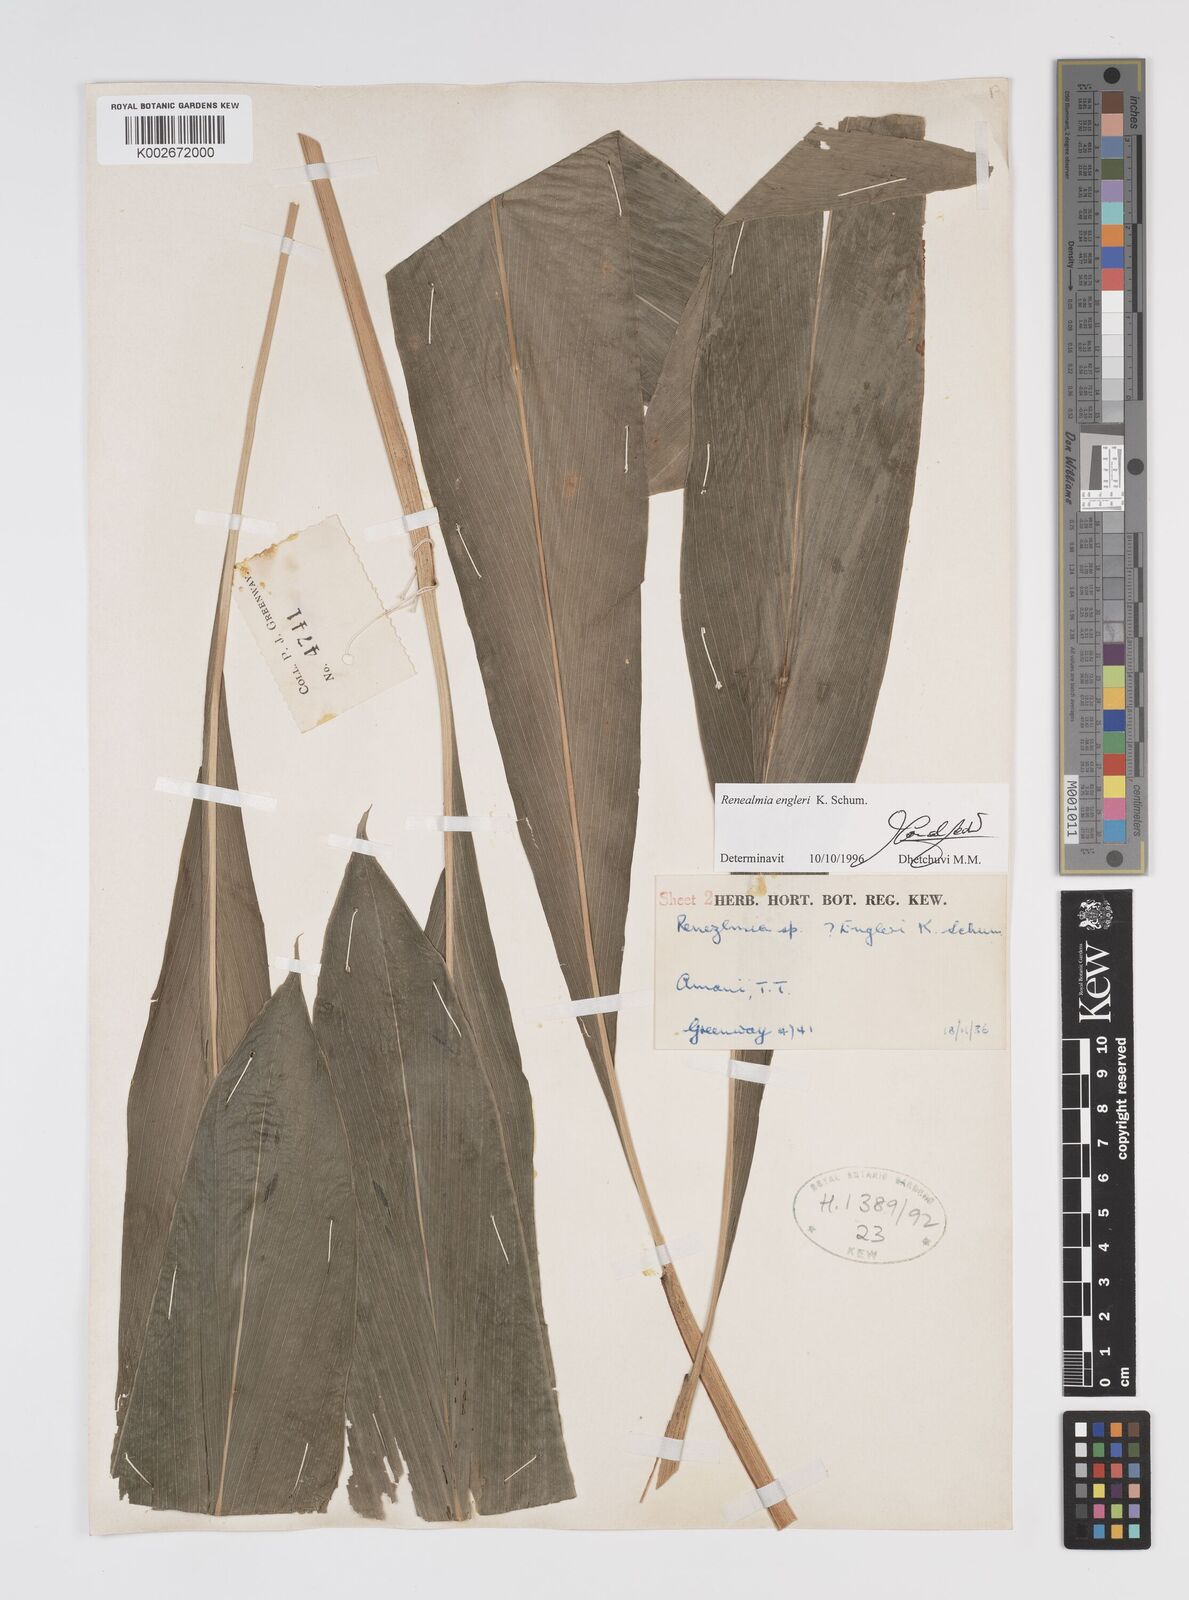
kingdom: Plantae
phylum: Tracheophyta
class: Liliopsida
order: Zingiberales
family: Zingiberaceae
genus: Renealmia
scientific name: Renealmia engleri
